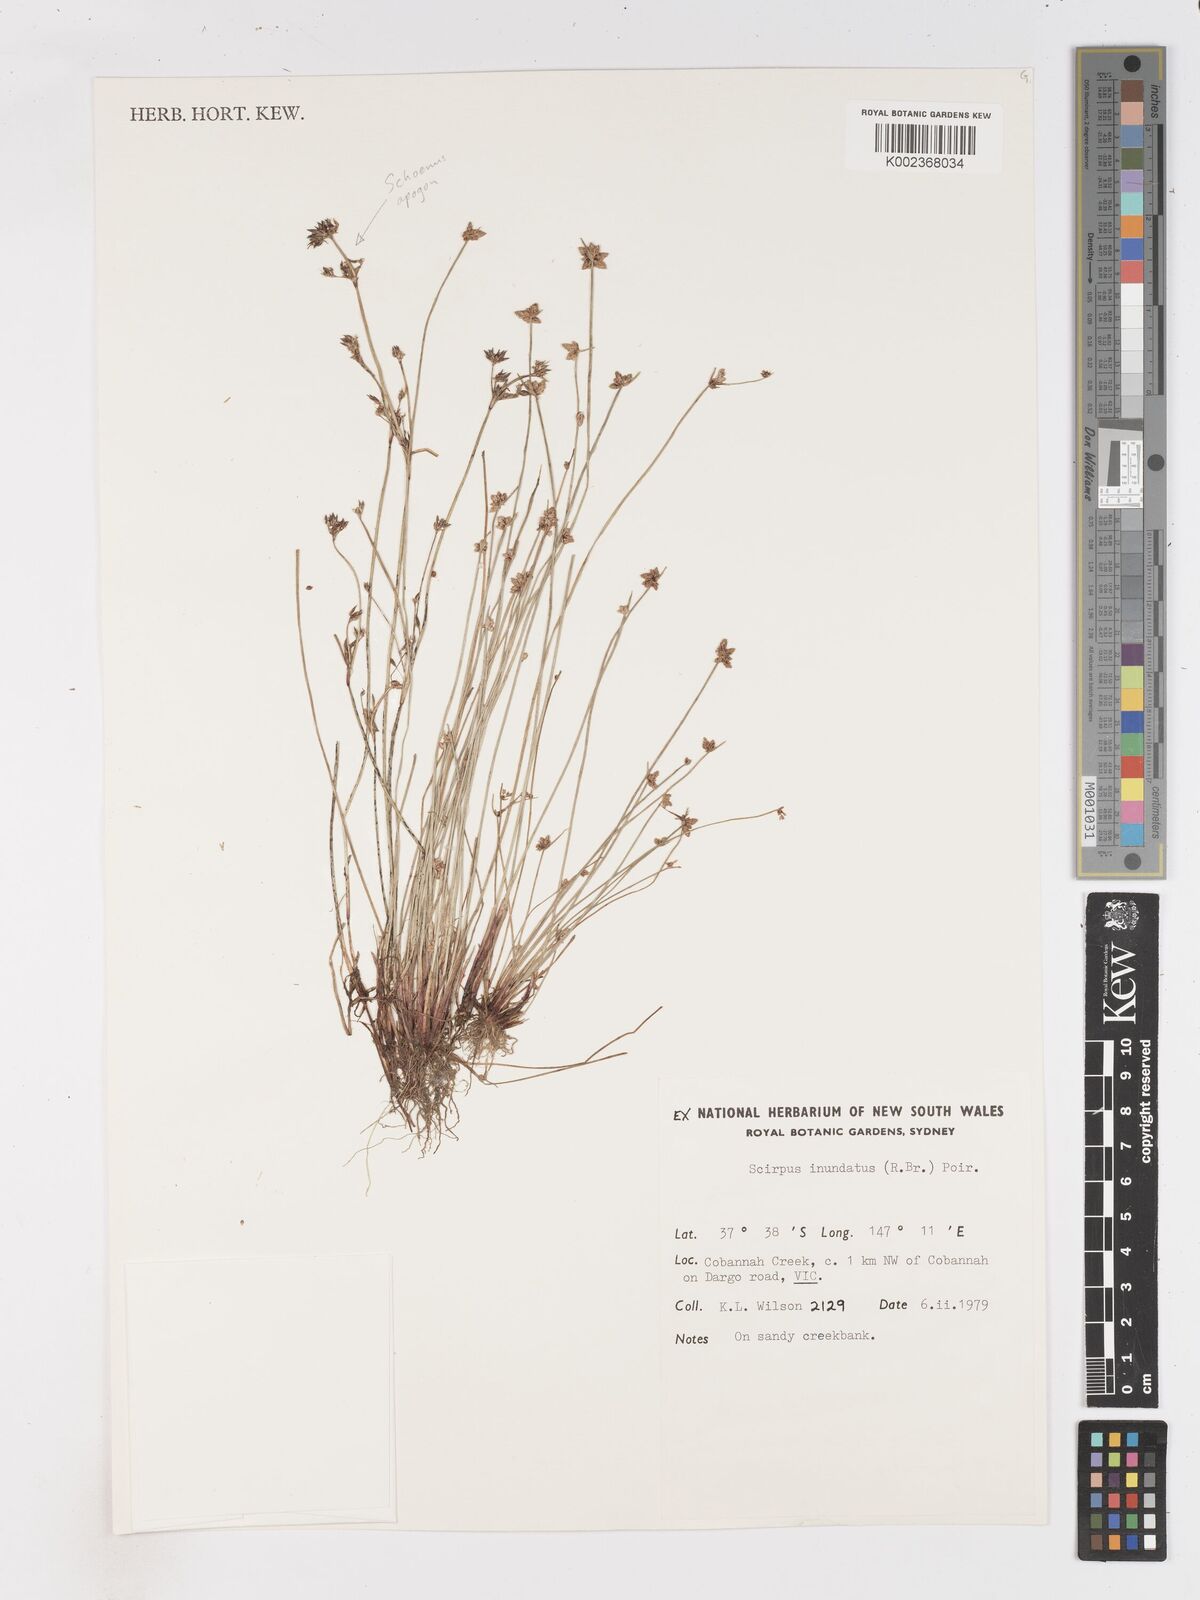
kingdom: Plantae
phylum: Tracheophyta
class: Liliopsida
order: Poales
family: Cyperaceae
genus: Isolepis
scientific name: Isolepis inundata
